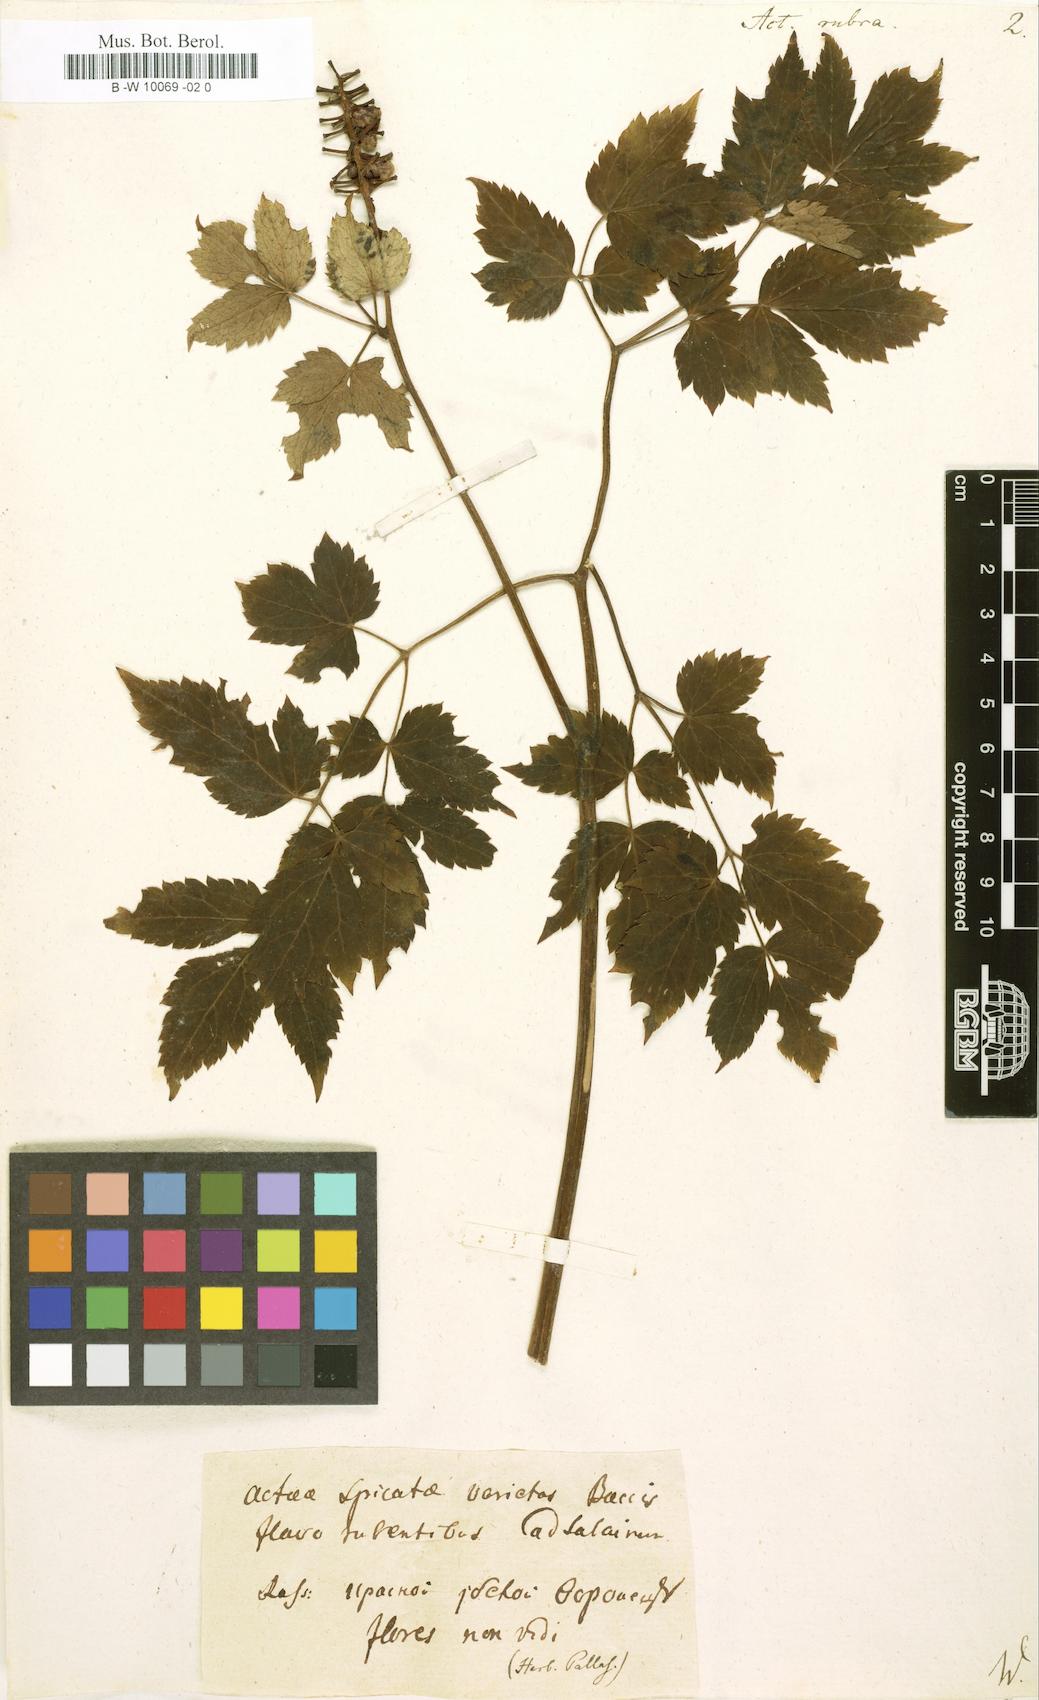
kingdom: Plantae
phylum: Tracheophyta
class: Magnoliopsida
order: Ranunculales
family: Ranunculaceae
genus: Actaea
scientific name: Actaea rubra
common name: Red baneberry
